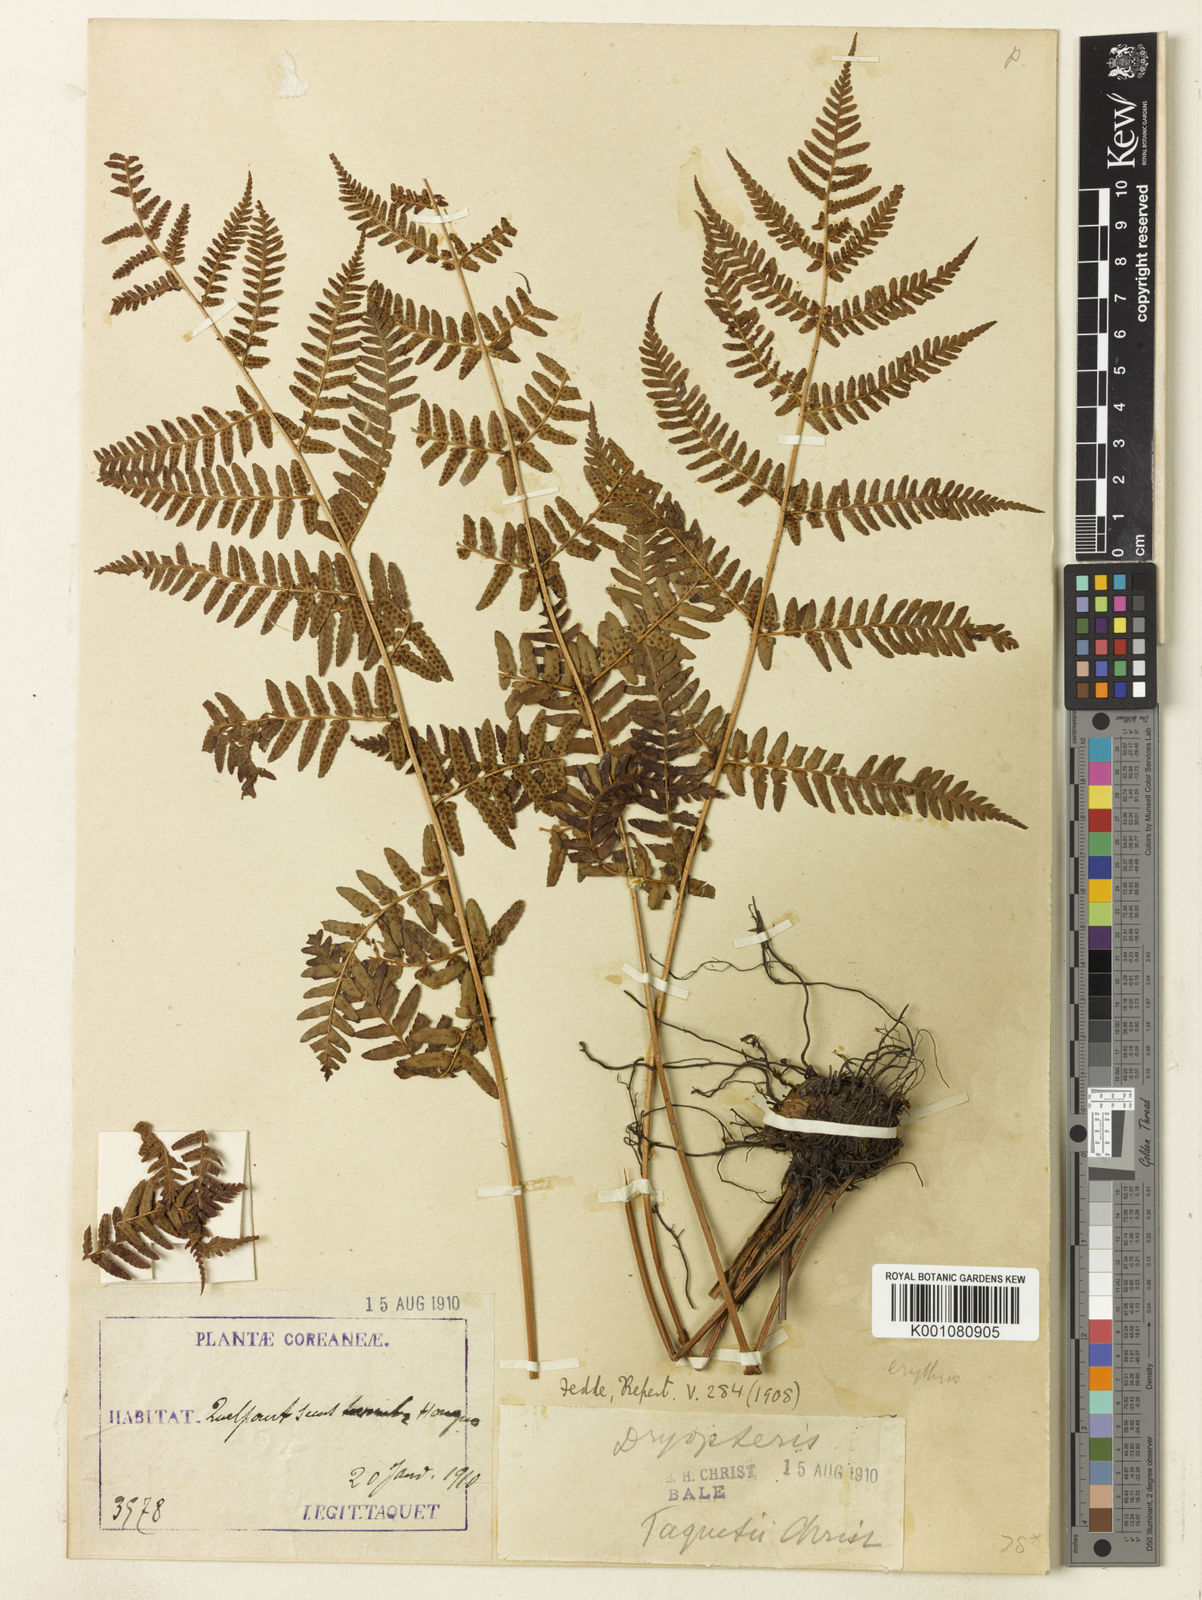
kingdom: Plantae
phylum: Tracheophyta
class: Polypodiopsida
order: Polypodiales
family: Dryopteridaceae
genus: Dryopteris
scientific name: Dryopteris nipponensis
